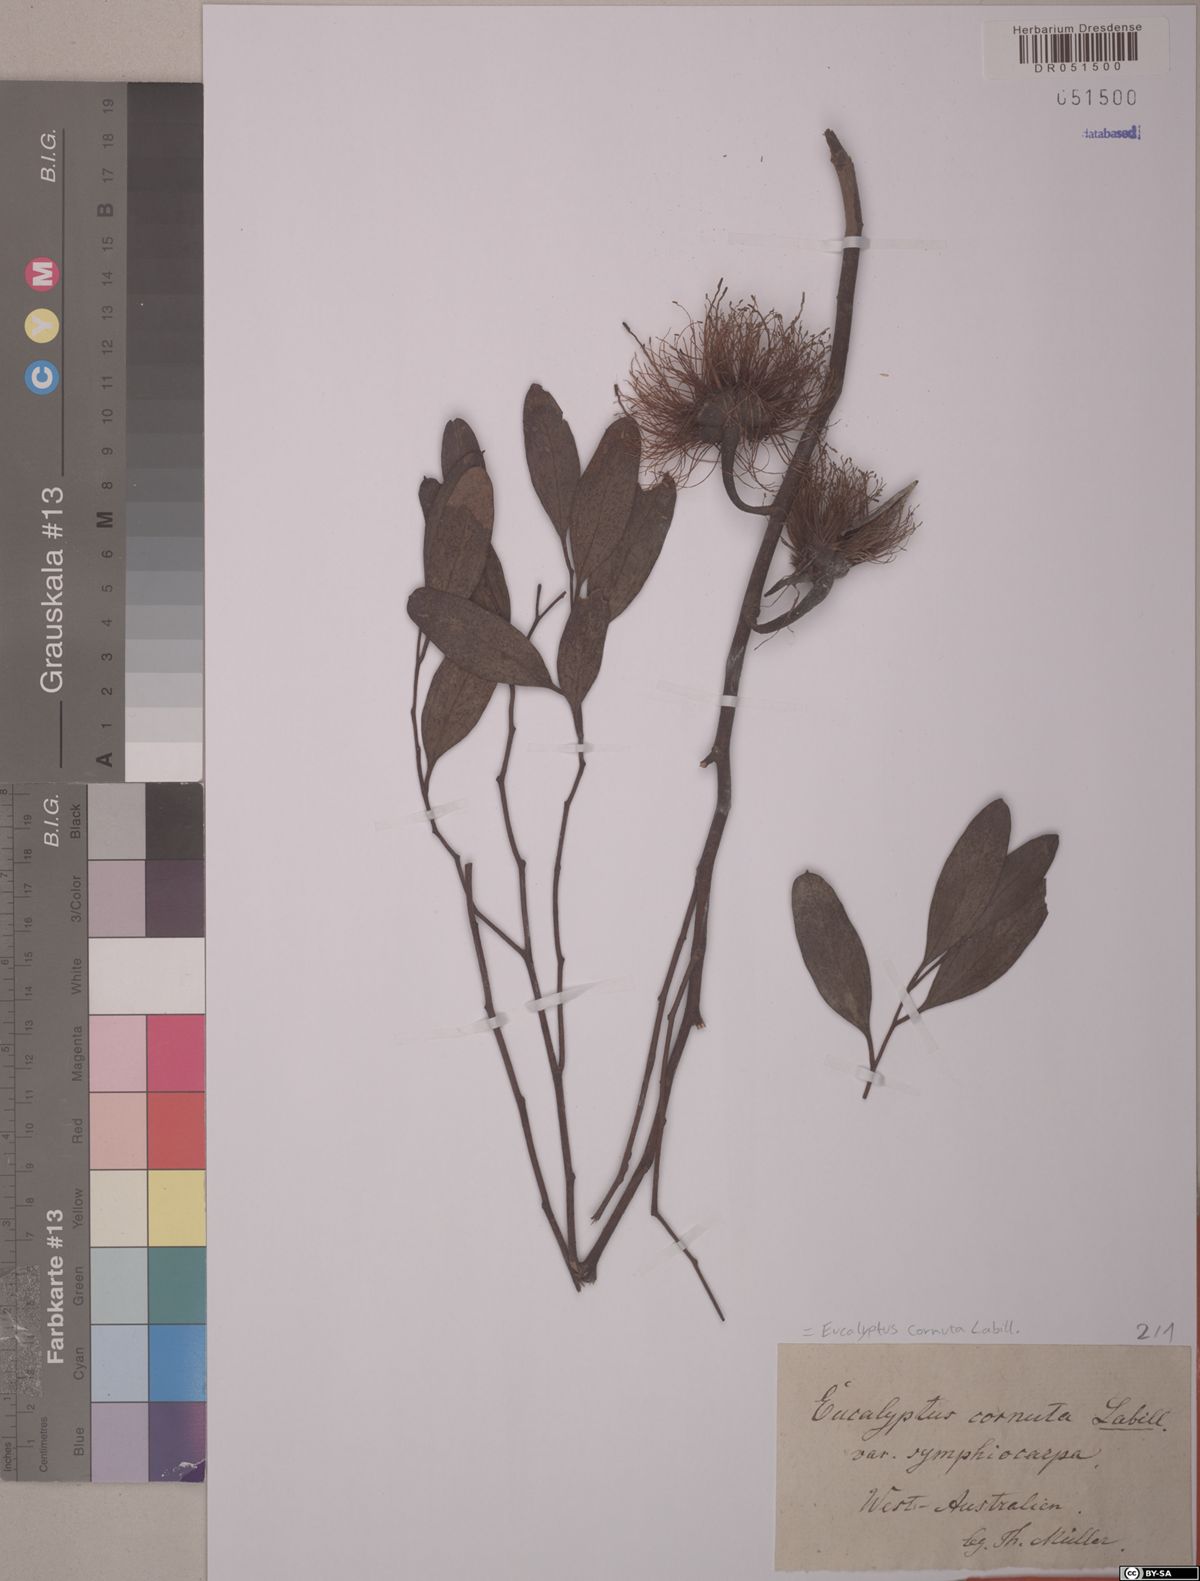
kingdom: Plantae
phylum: Tracheophyta
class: Magnoliopsida
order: Myrtales
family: Myrtaceae
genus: Eucalyptus
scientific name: Eucalyptus cornuta
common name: Yate
